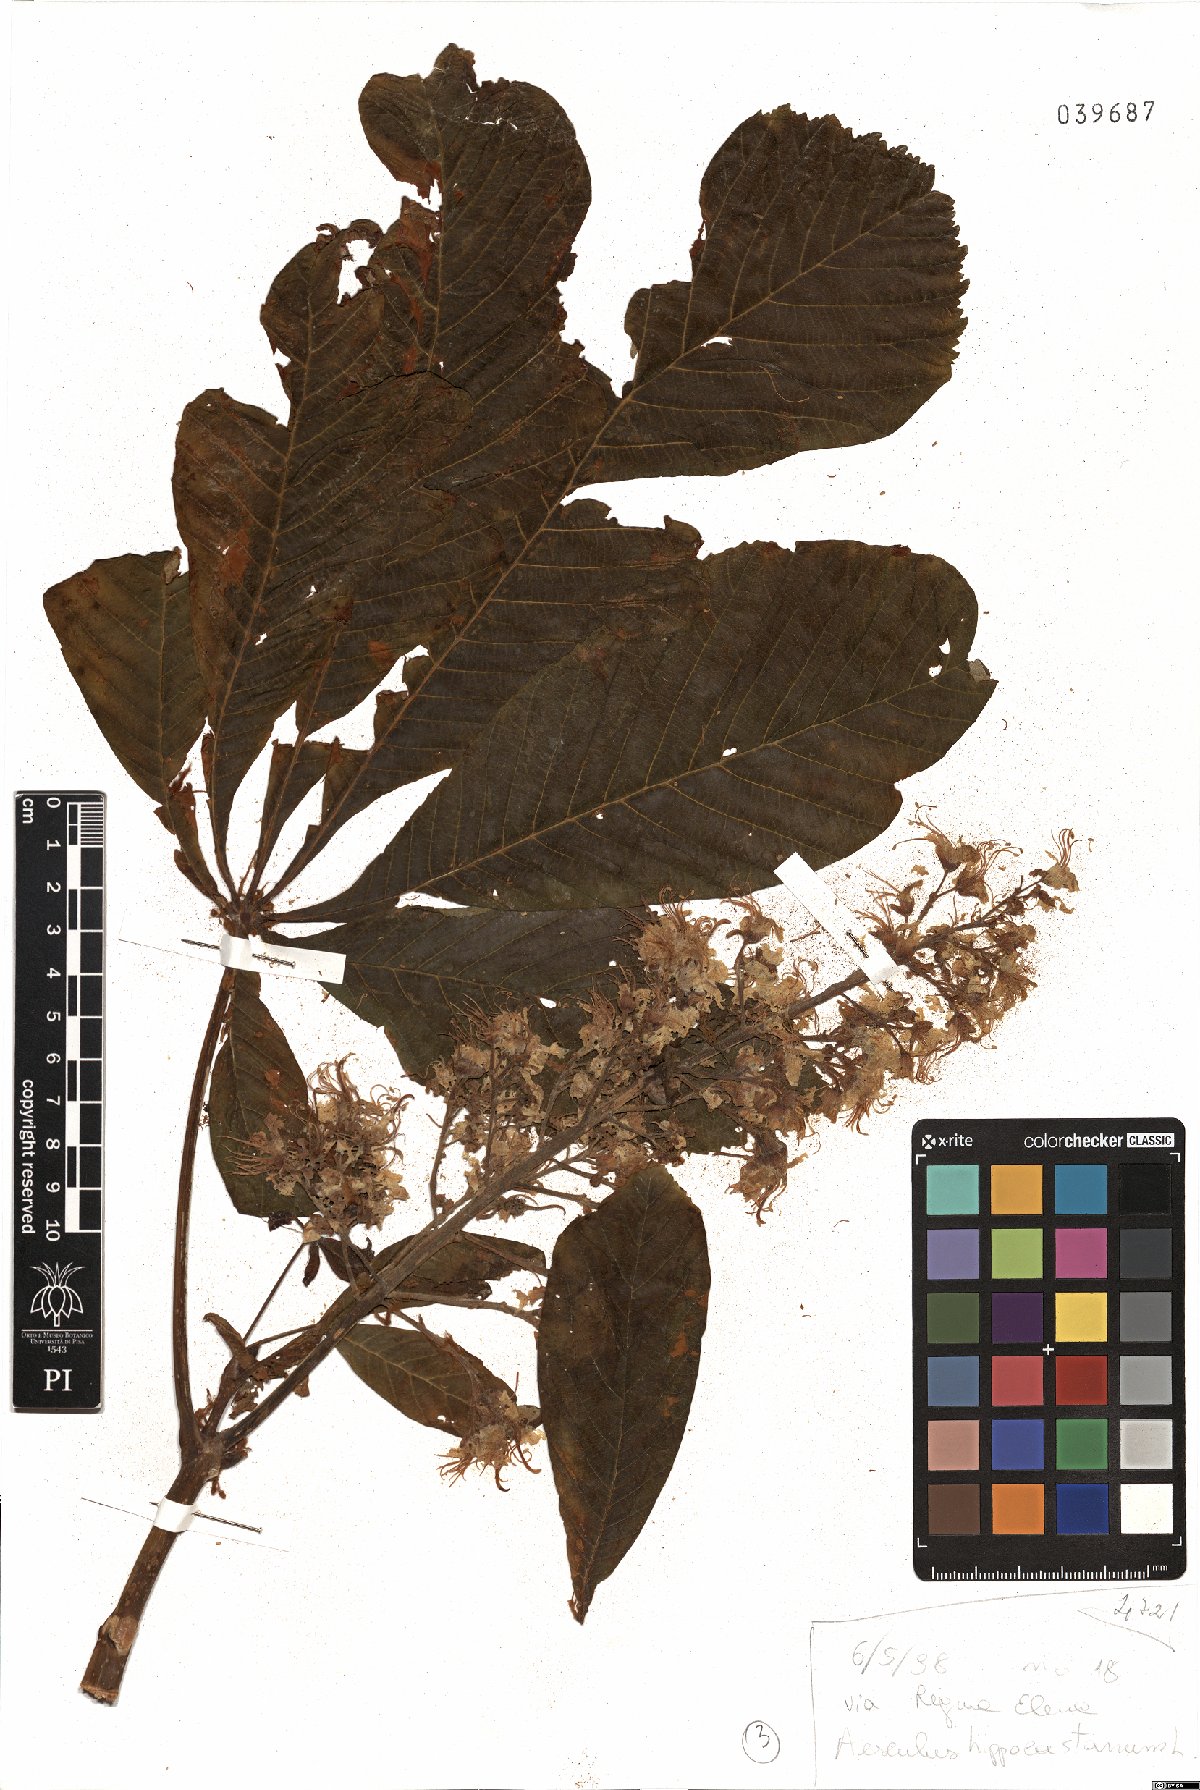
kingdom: Plantae
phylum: Tracheophyta
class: Magnoliopsida
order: Sapindales
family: Sapindaceae
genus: Aesculus
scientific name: Aesculus hippocastanum
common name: Horse-chestnut
